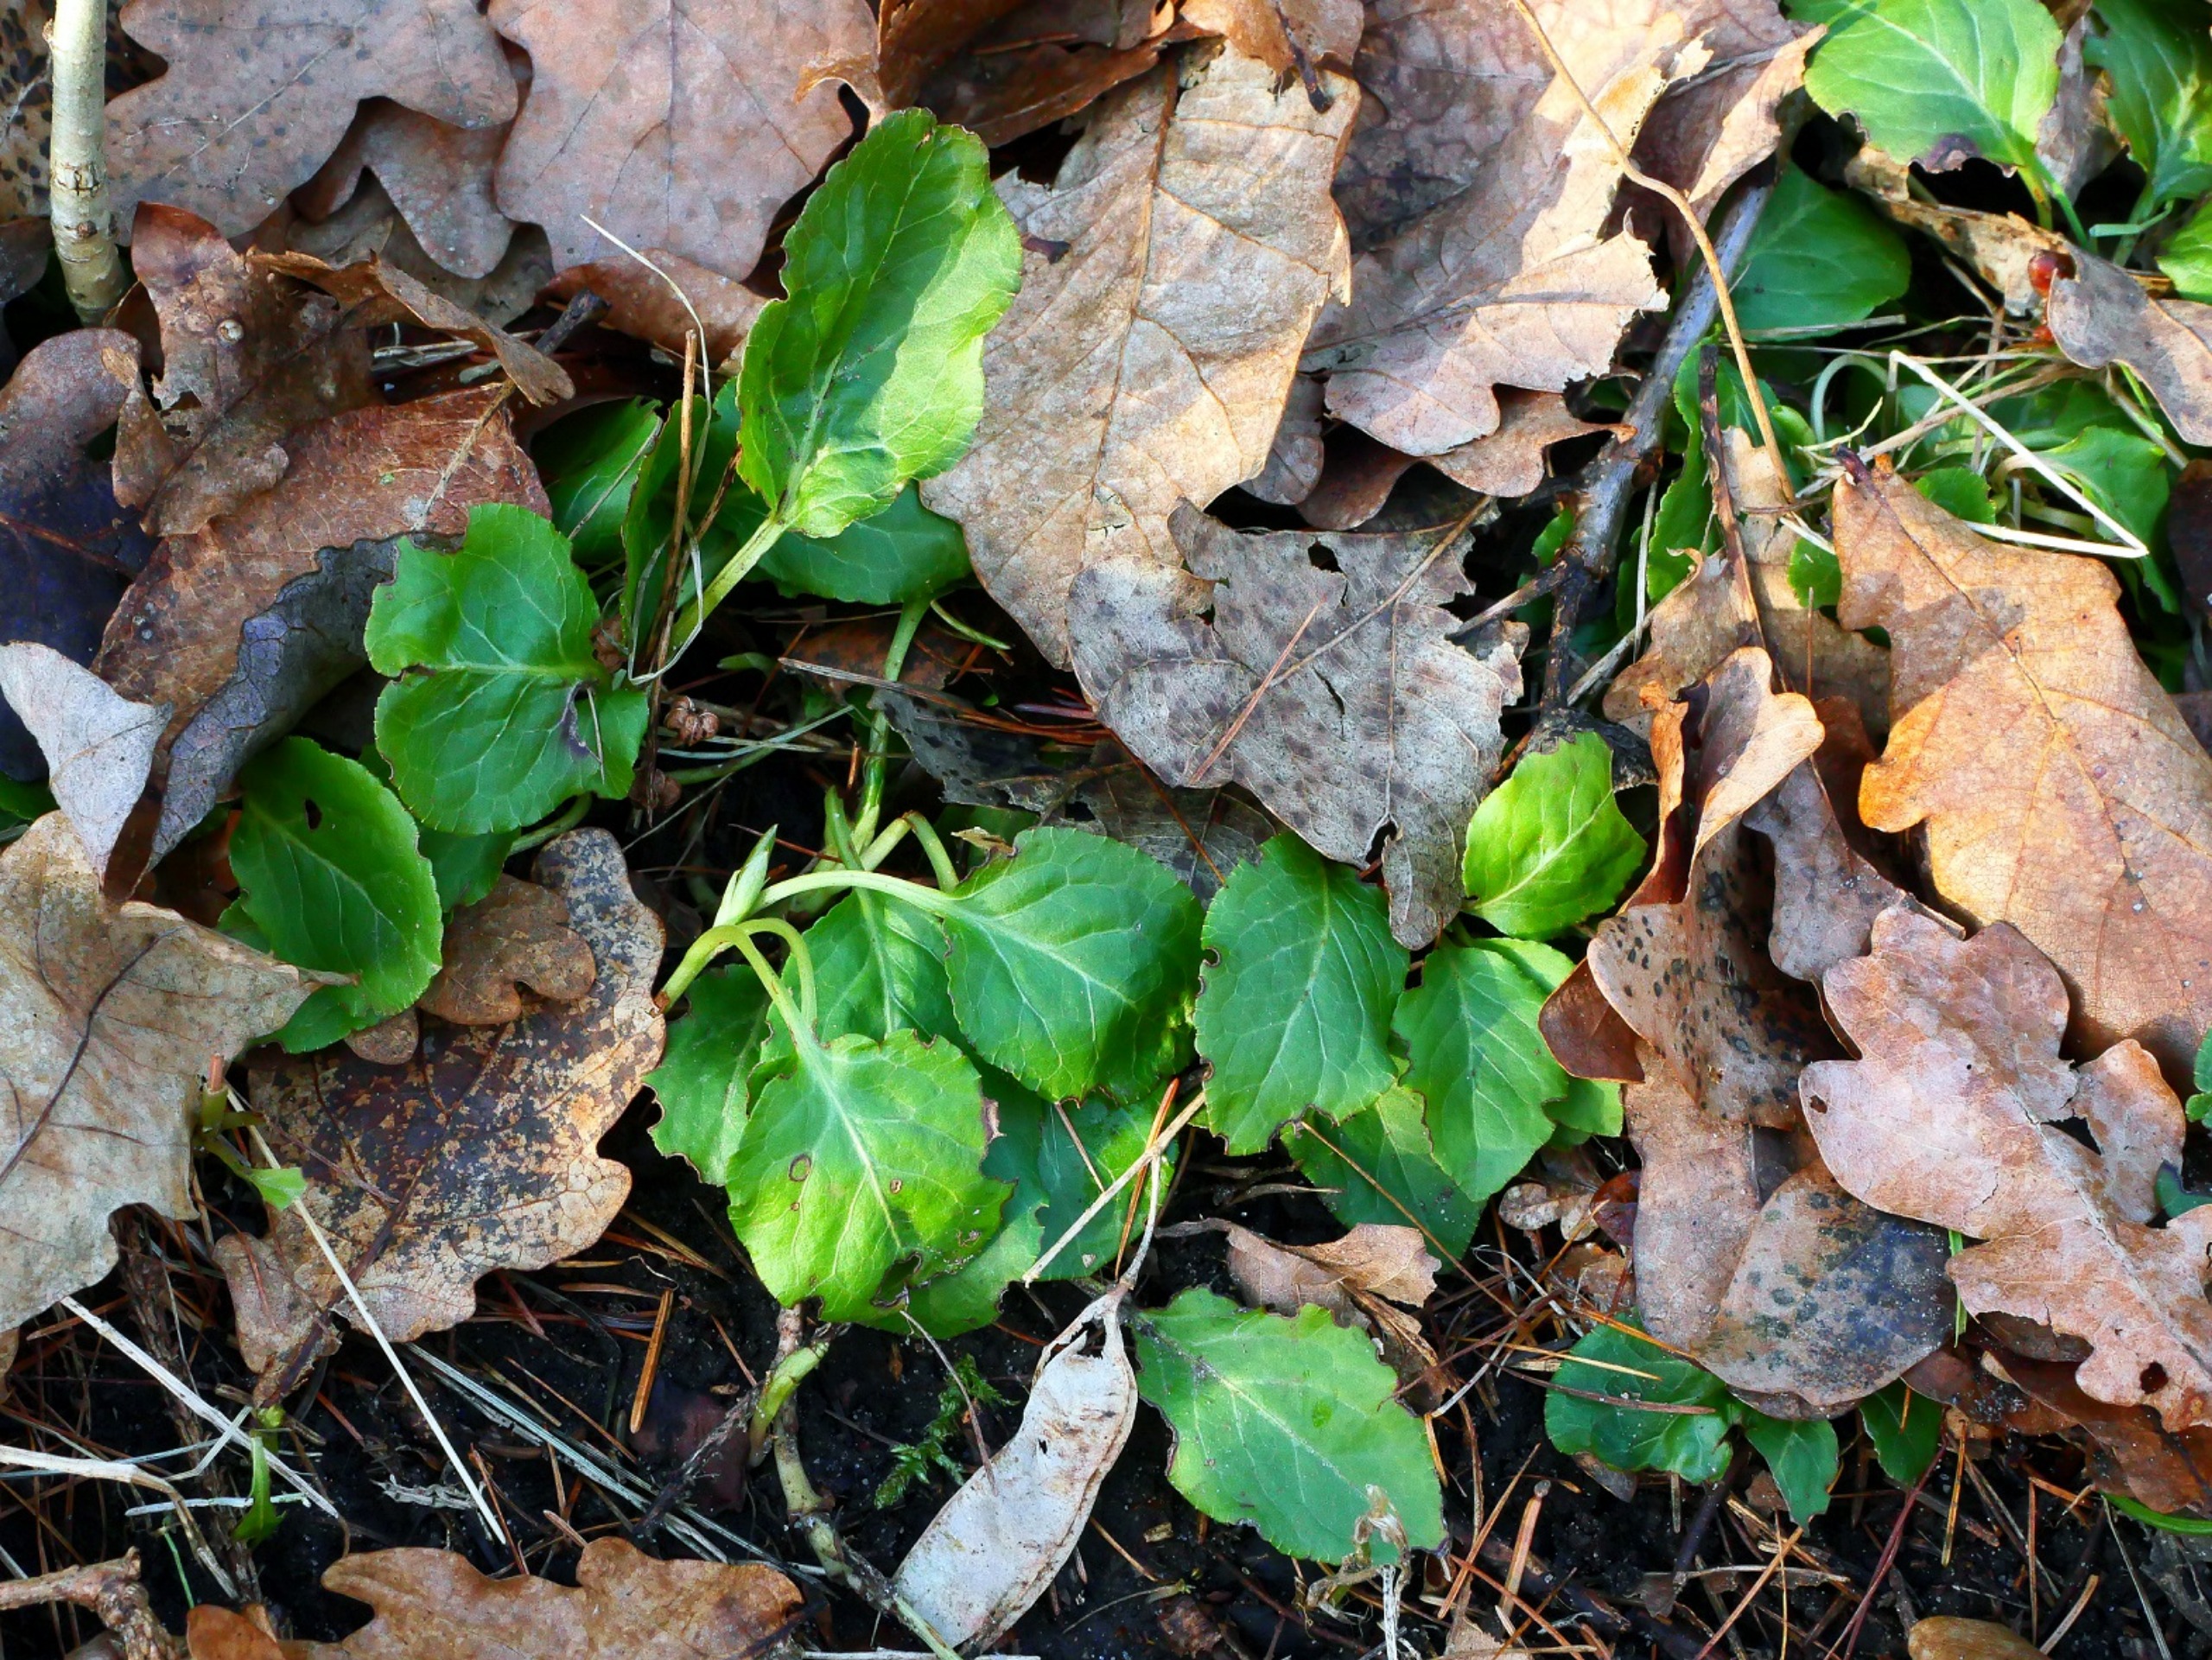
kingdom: Plantae
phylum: Tracheophyta
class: Magnoliopsida
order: Ericales
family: Ericaceae
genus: Pyrola
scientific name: Pyrola minor
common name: Liden vintergrøn
